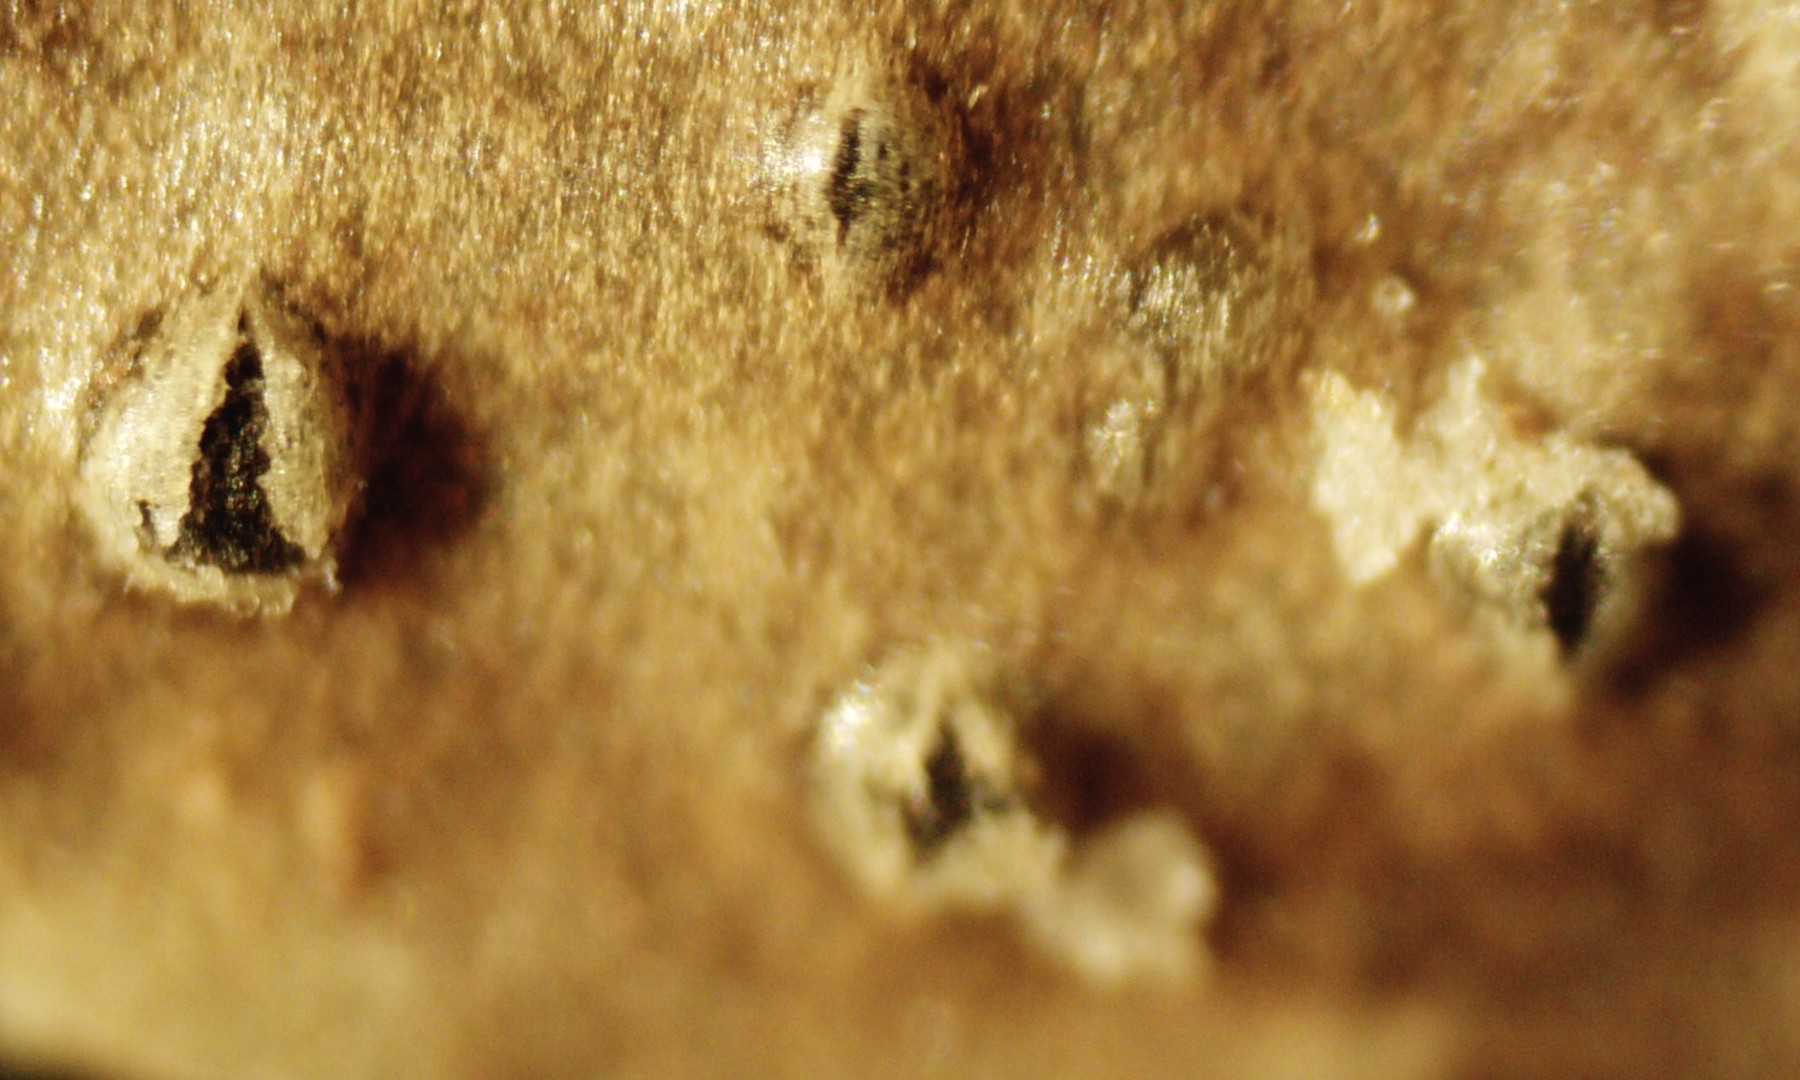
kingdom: Fungi
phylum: Ascomycota
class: Dothideomycetes
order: Botryosphaeriales
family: Botryosphaeriaceae
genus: Diplodia
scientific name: Diplodia oudemansii
